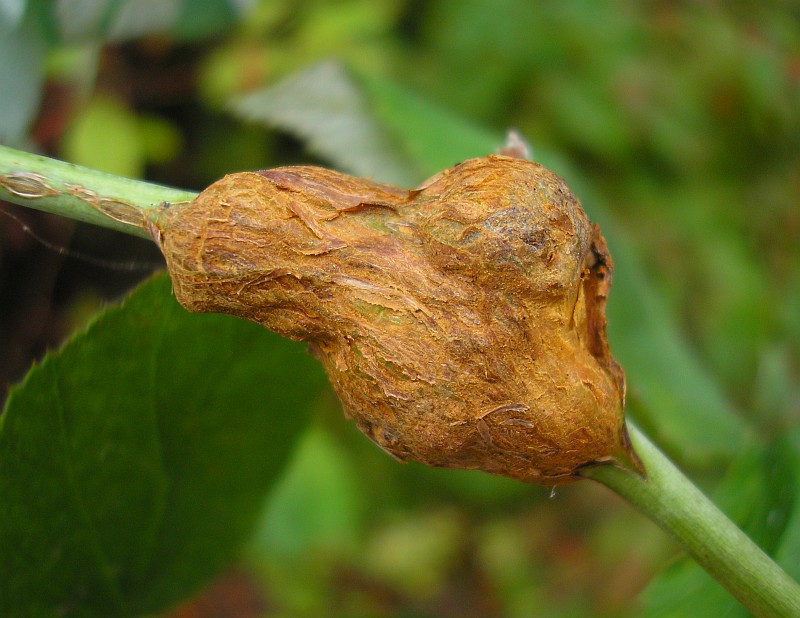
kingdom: Animalia
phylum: Arthropoda
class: Insecta
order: Diptera
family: Cecidomyiidae
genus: Lasioptera
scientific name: Lasioptera rubi
